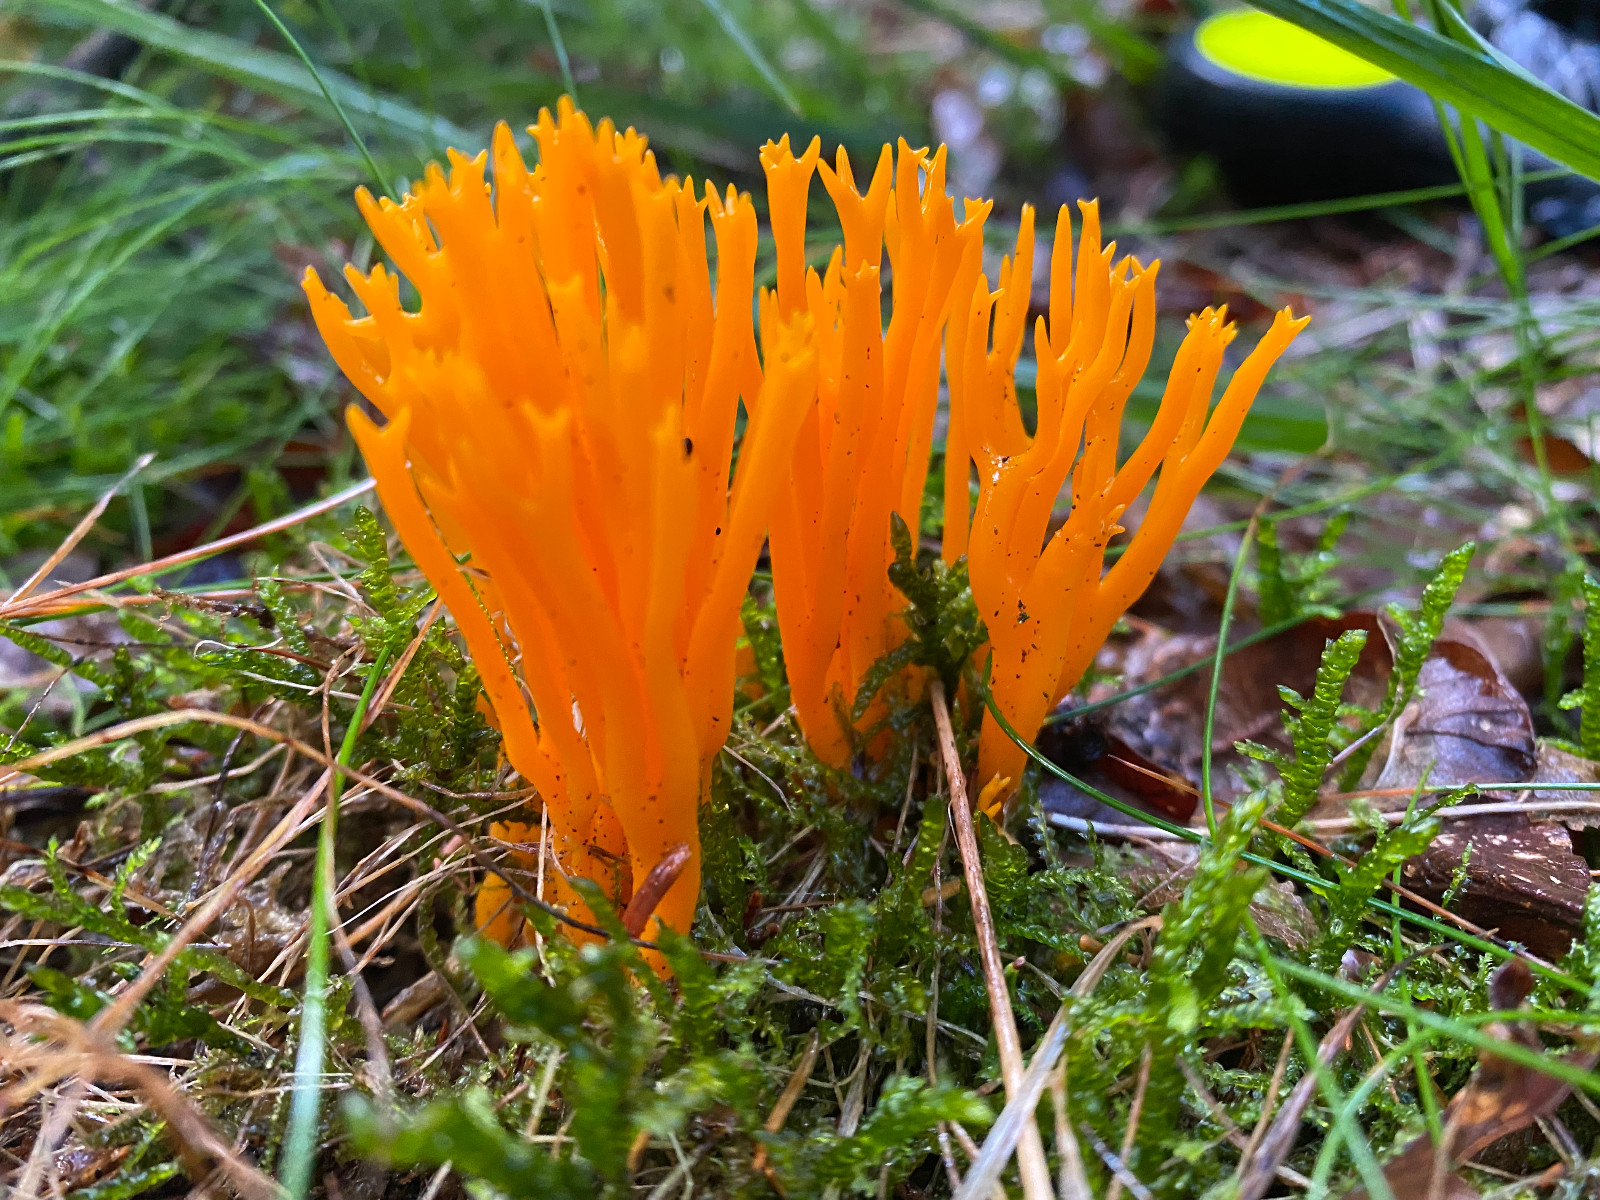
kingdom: Fungi
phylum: Basidiomycota
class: Dacrymycetes
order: Dacrymycetales
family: Dacrymycetaceae
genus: Calocera
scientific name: Calocera viscosa
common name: almindelig guldgaffel
